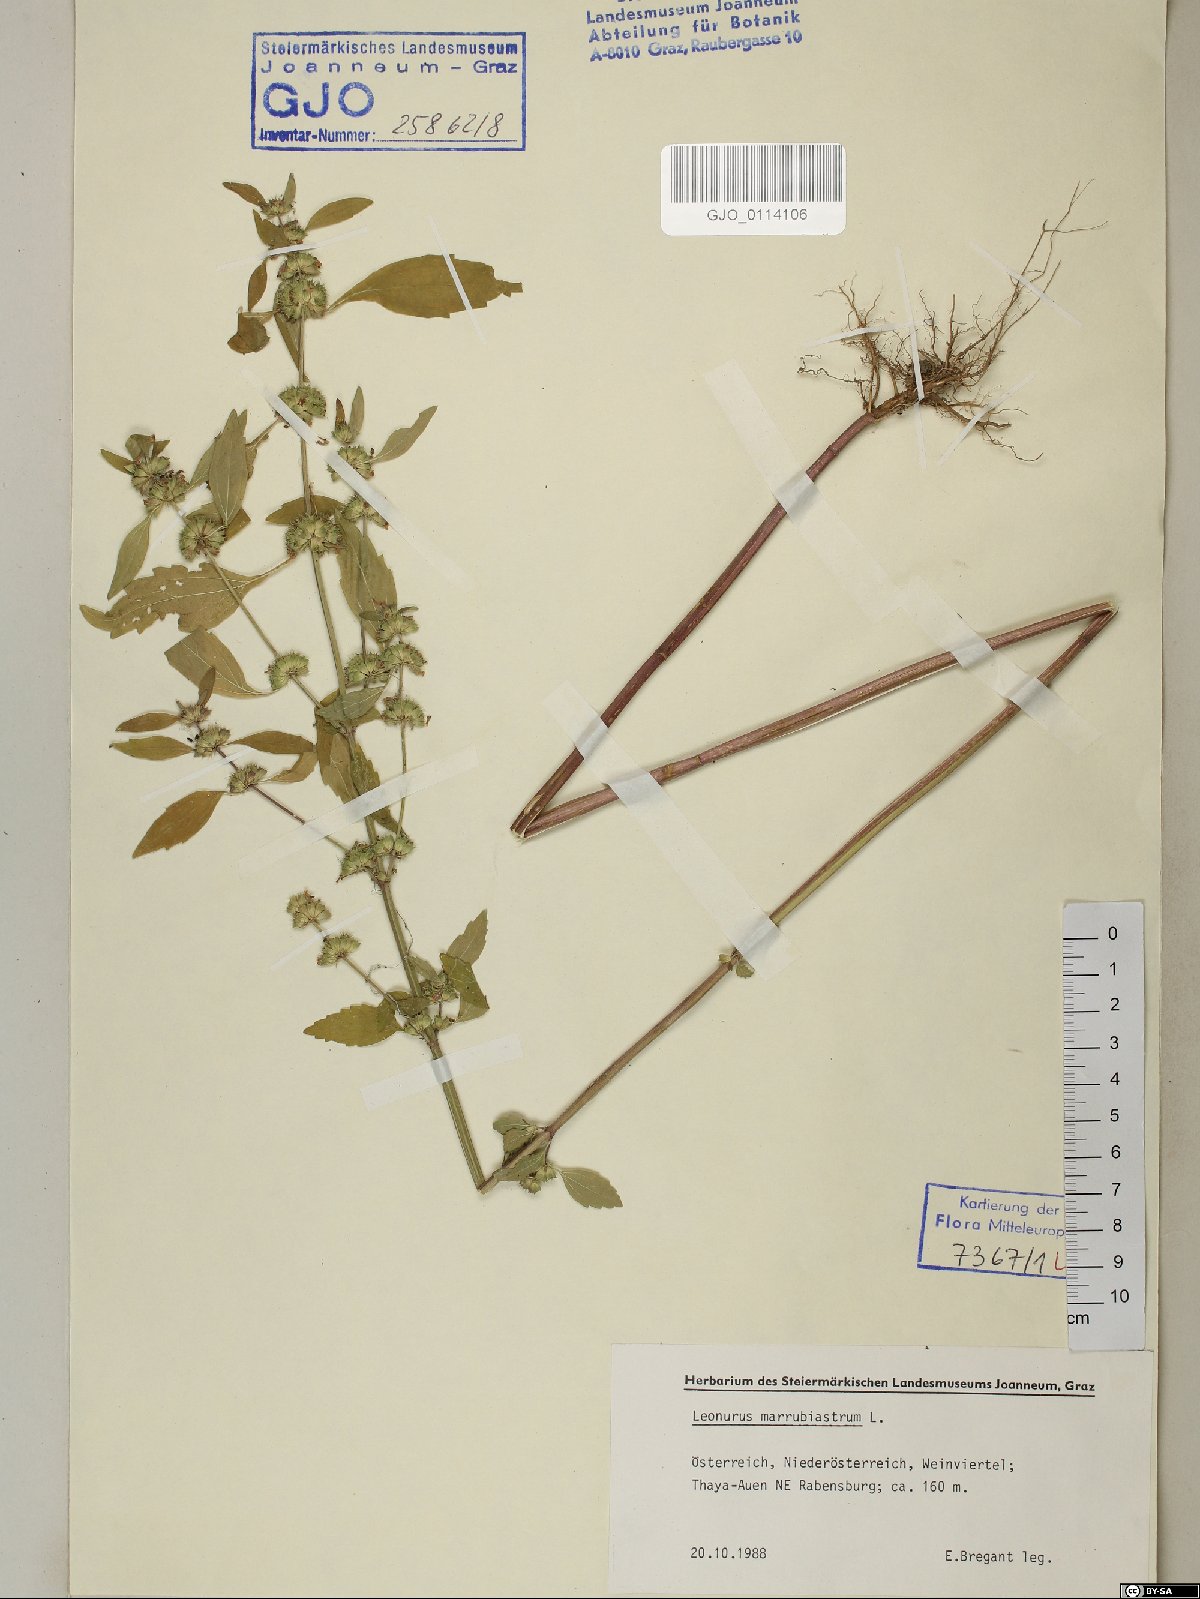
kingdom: Plantae
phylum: Tracheophyta
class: Magnoliopsida
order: Lamiales
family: Lamiaceae
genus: Chaiturus
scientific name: Chaiturus marrubiastrum
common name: Lion's tail
